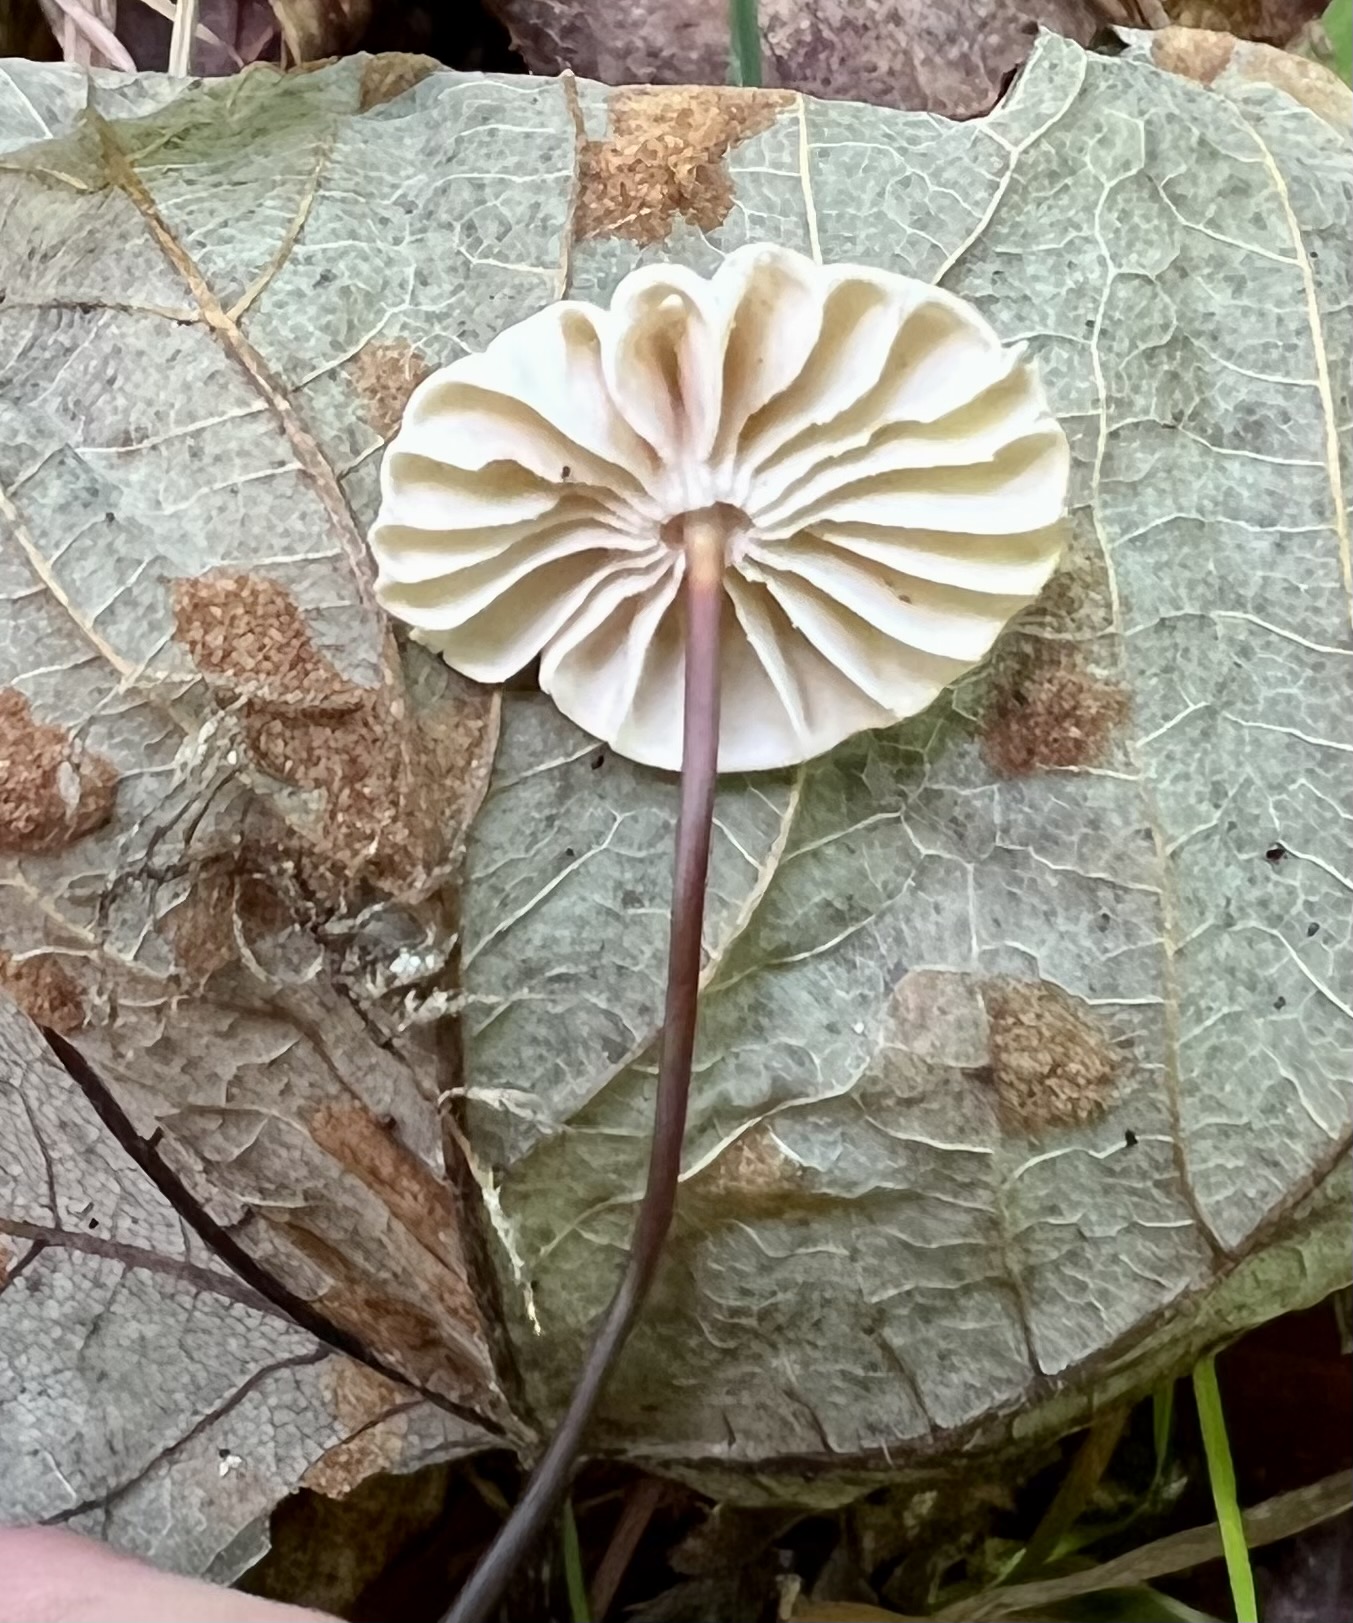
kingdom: Fungi
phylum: Basidiomycota
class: Agaricomycetes
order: Agaricales
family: Marasmiaceae
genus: Marasmius
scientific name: Marasmius rotula
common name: hjul-bruskhat
